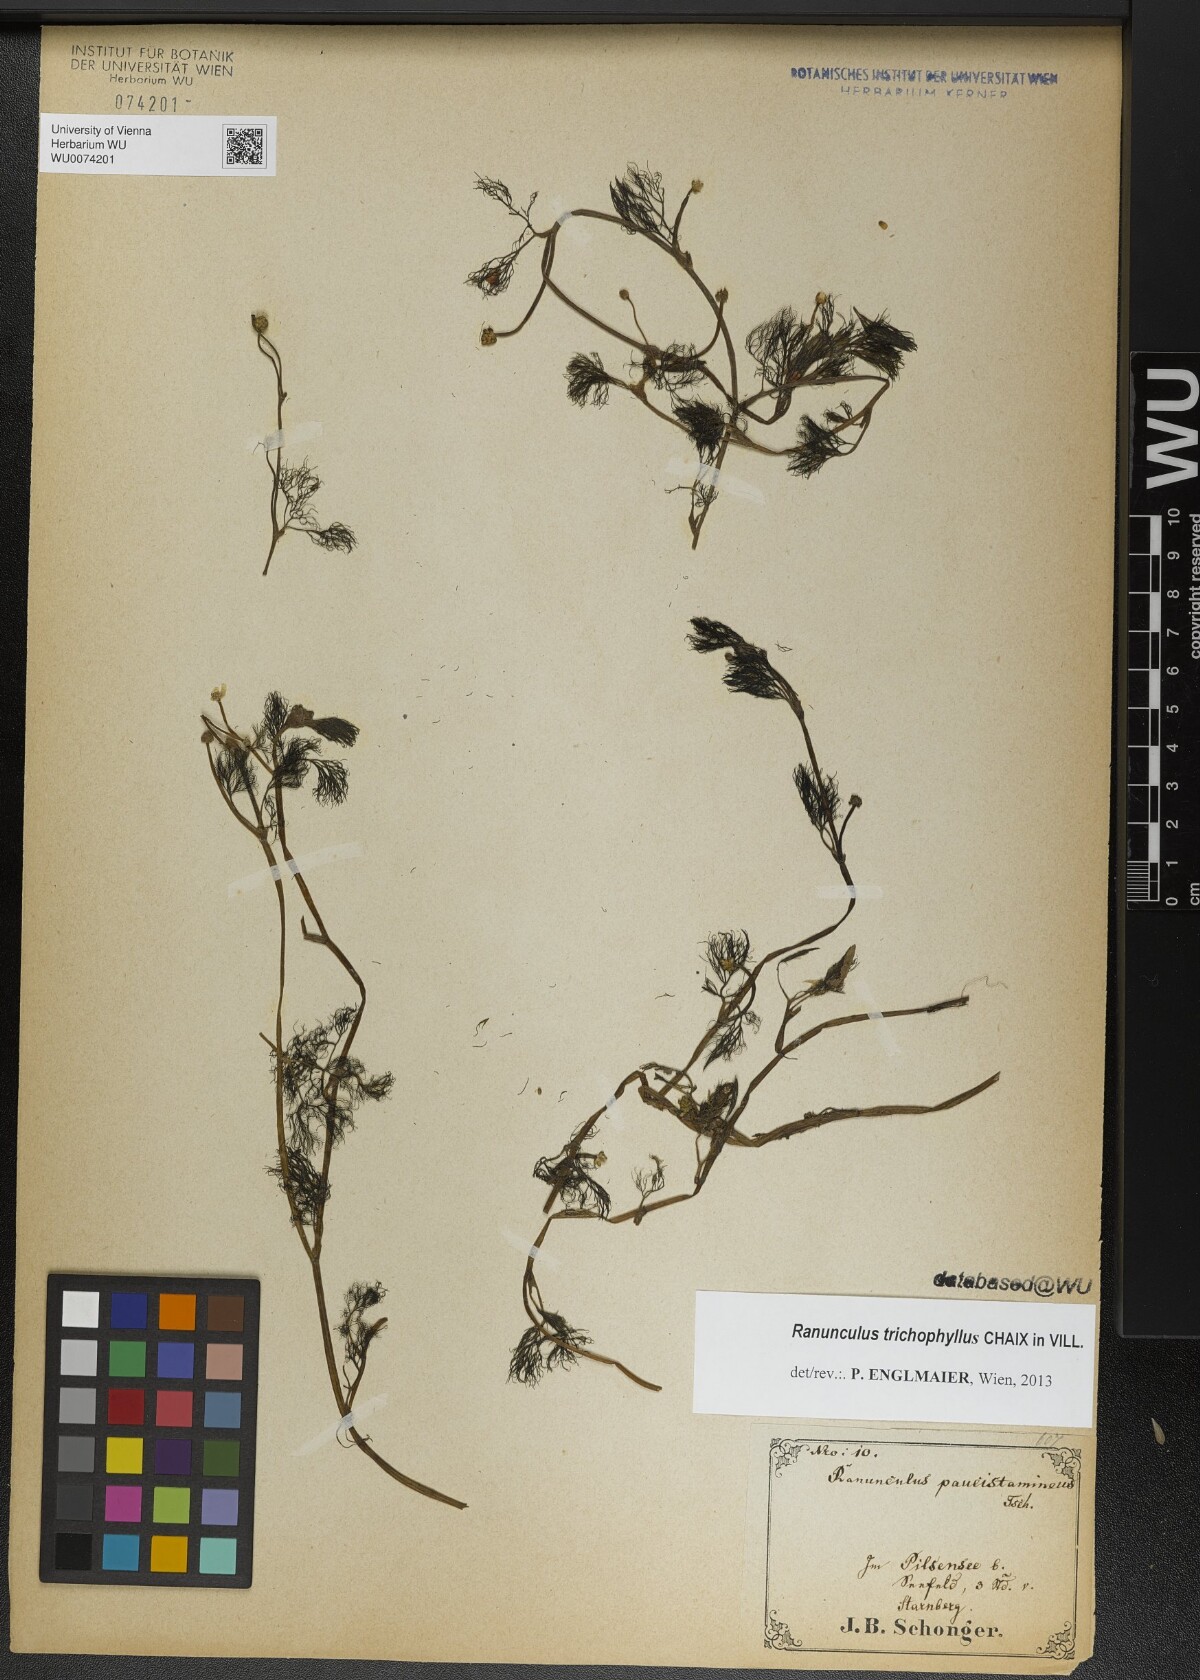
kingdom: Plantae
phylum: Tracheophyta
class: Magnoliopsida
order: Ranunculales
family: Ranunculaceae
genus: Ranunculus
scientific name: Ranunculus trichophyllus
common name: Thread-leaved water-crowfoot
